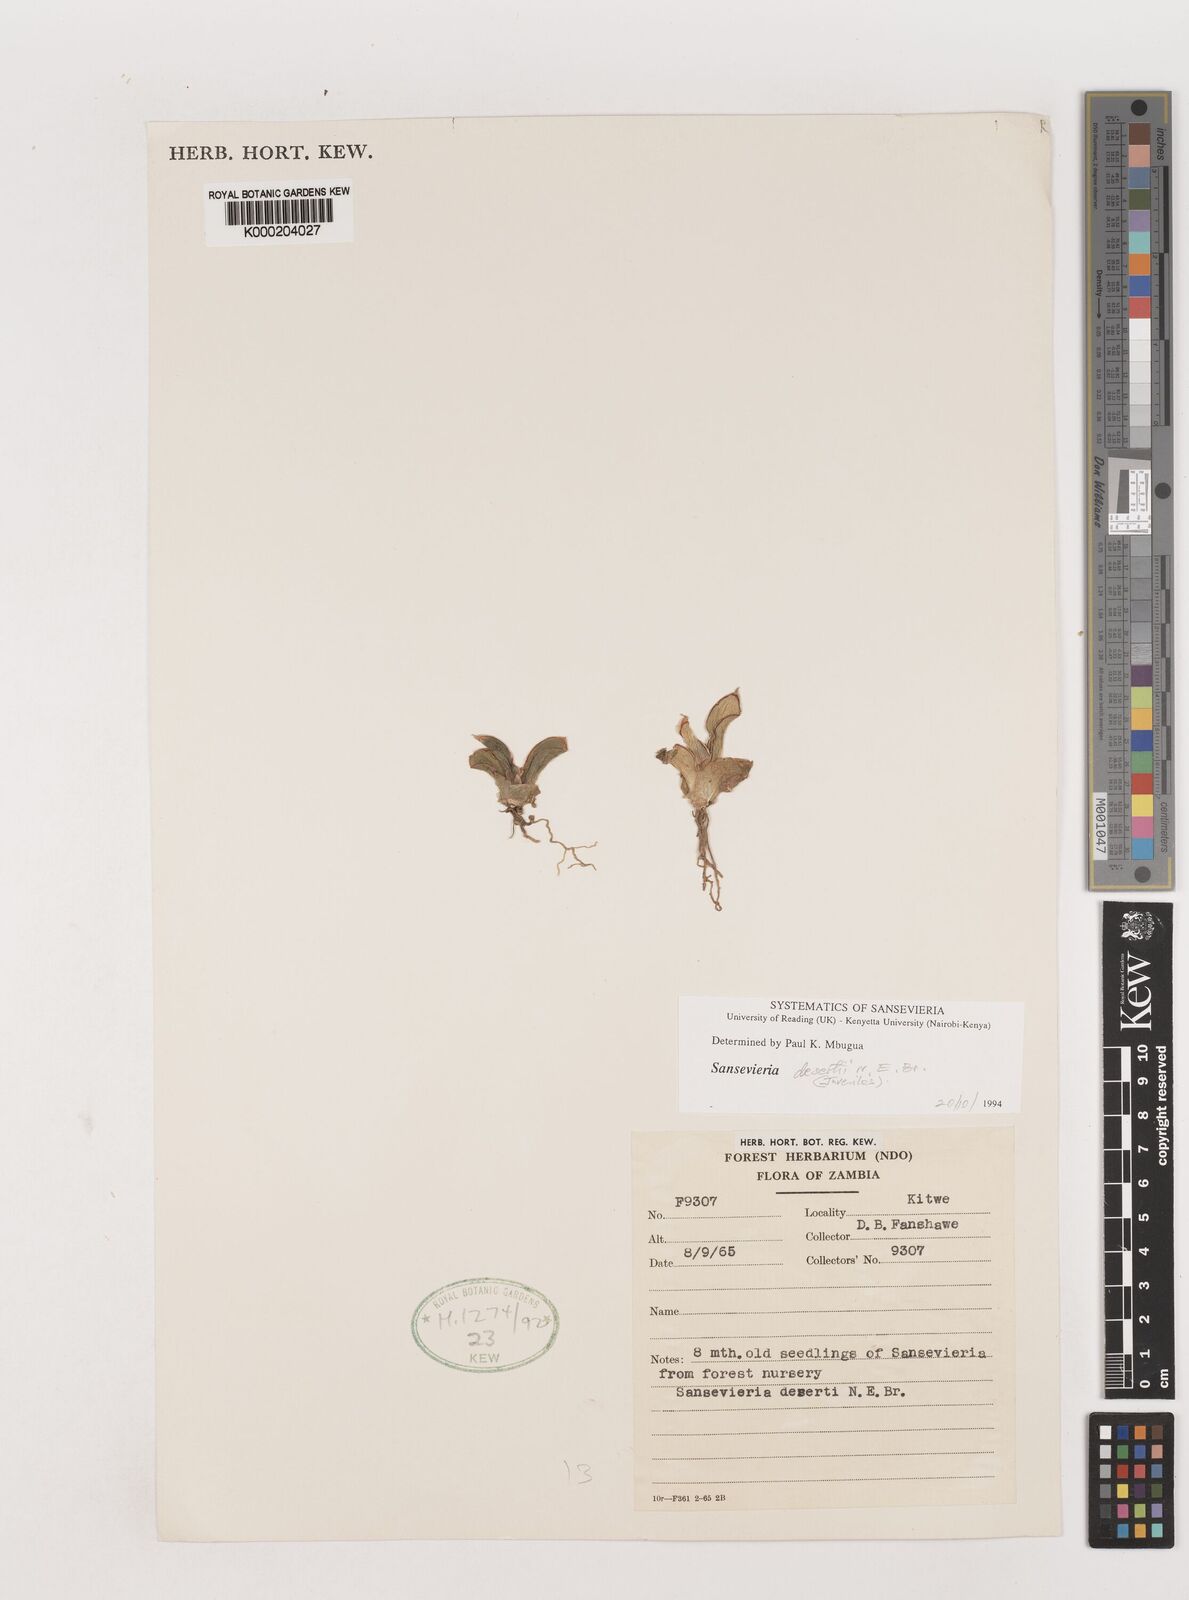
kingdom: Plantae
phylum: Tracheophyta
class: Liliopsida
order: Asparagales
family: Asparagaceae
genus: Dracaena
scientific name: Dracaena pearsonii
